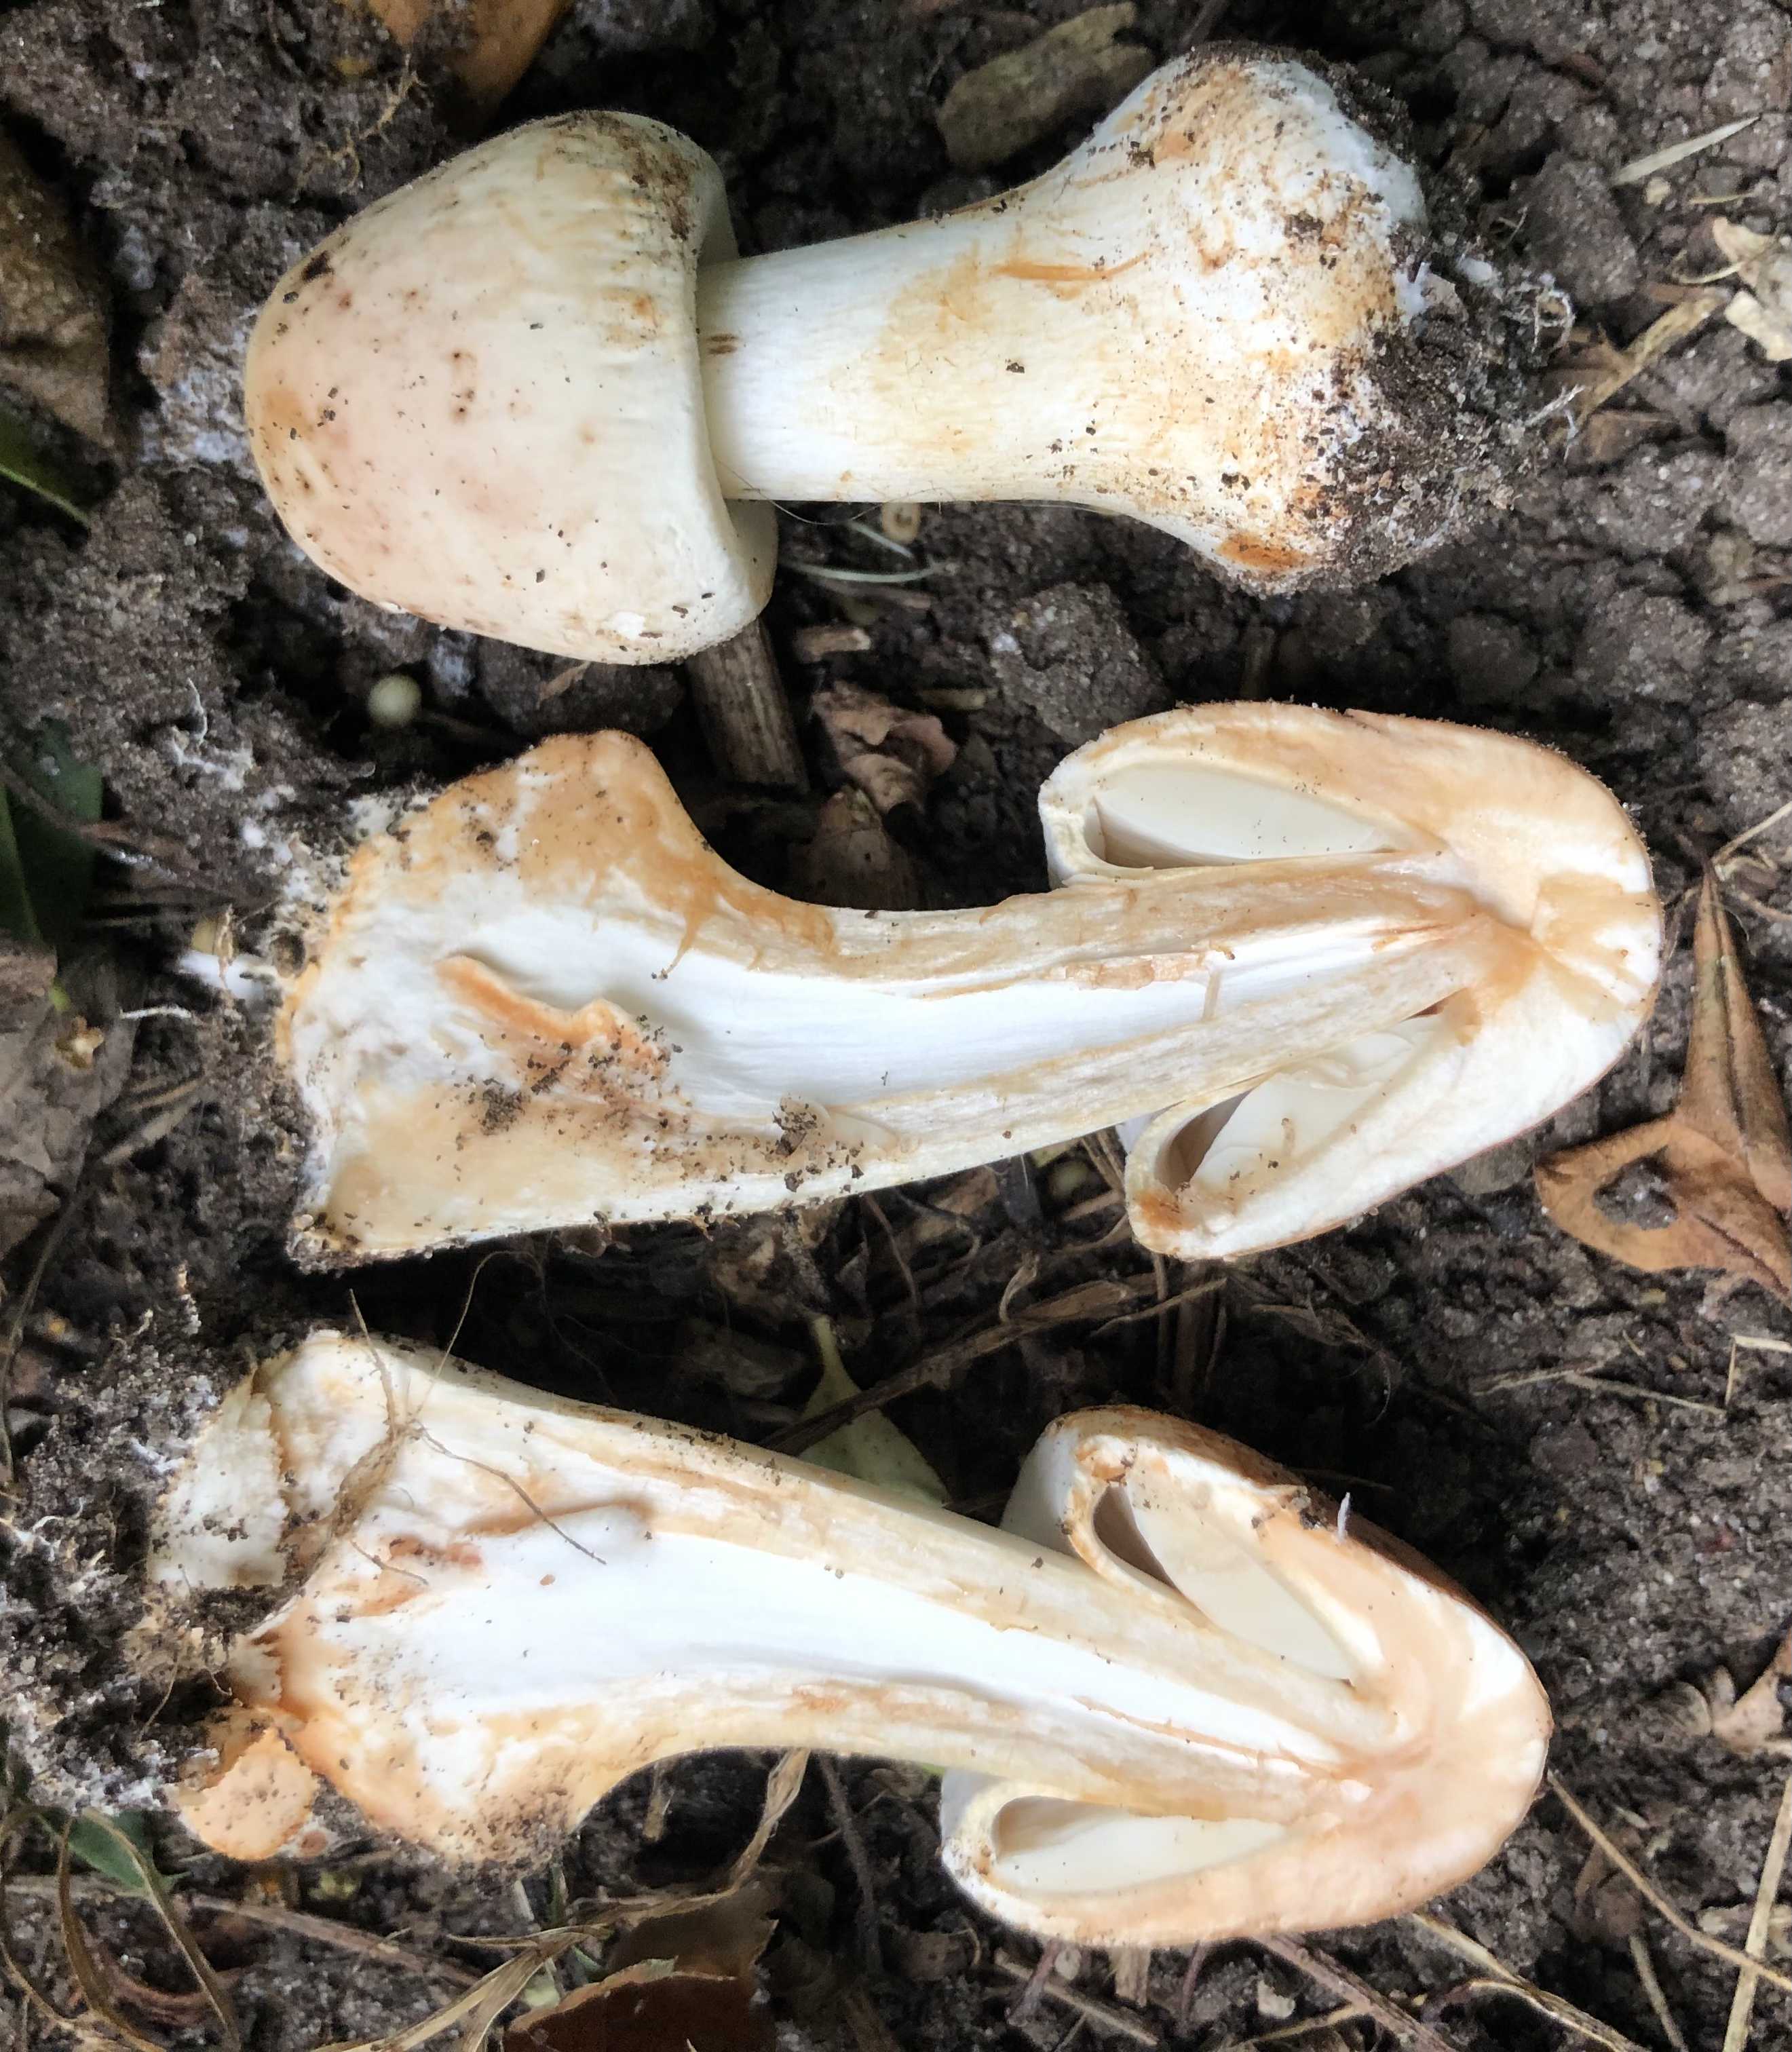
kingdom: Fungi
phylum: Basidiomycota
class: Agaricomycetes
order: Agaricales
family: Agaricaceae
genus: Chlorophyllum
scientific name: Chlorophyllum
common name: rabarberhat
